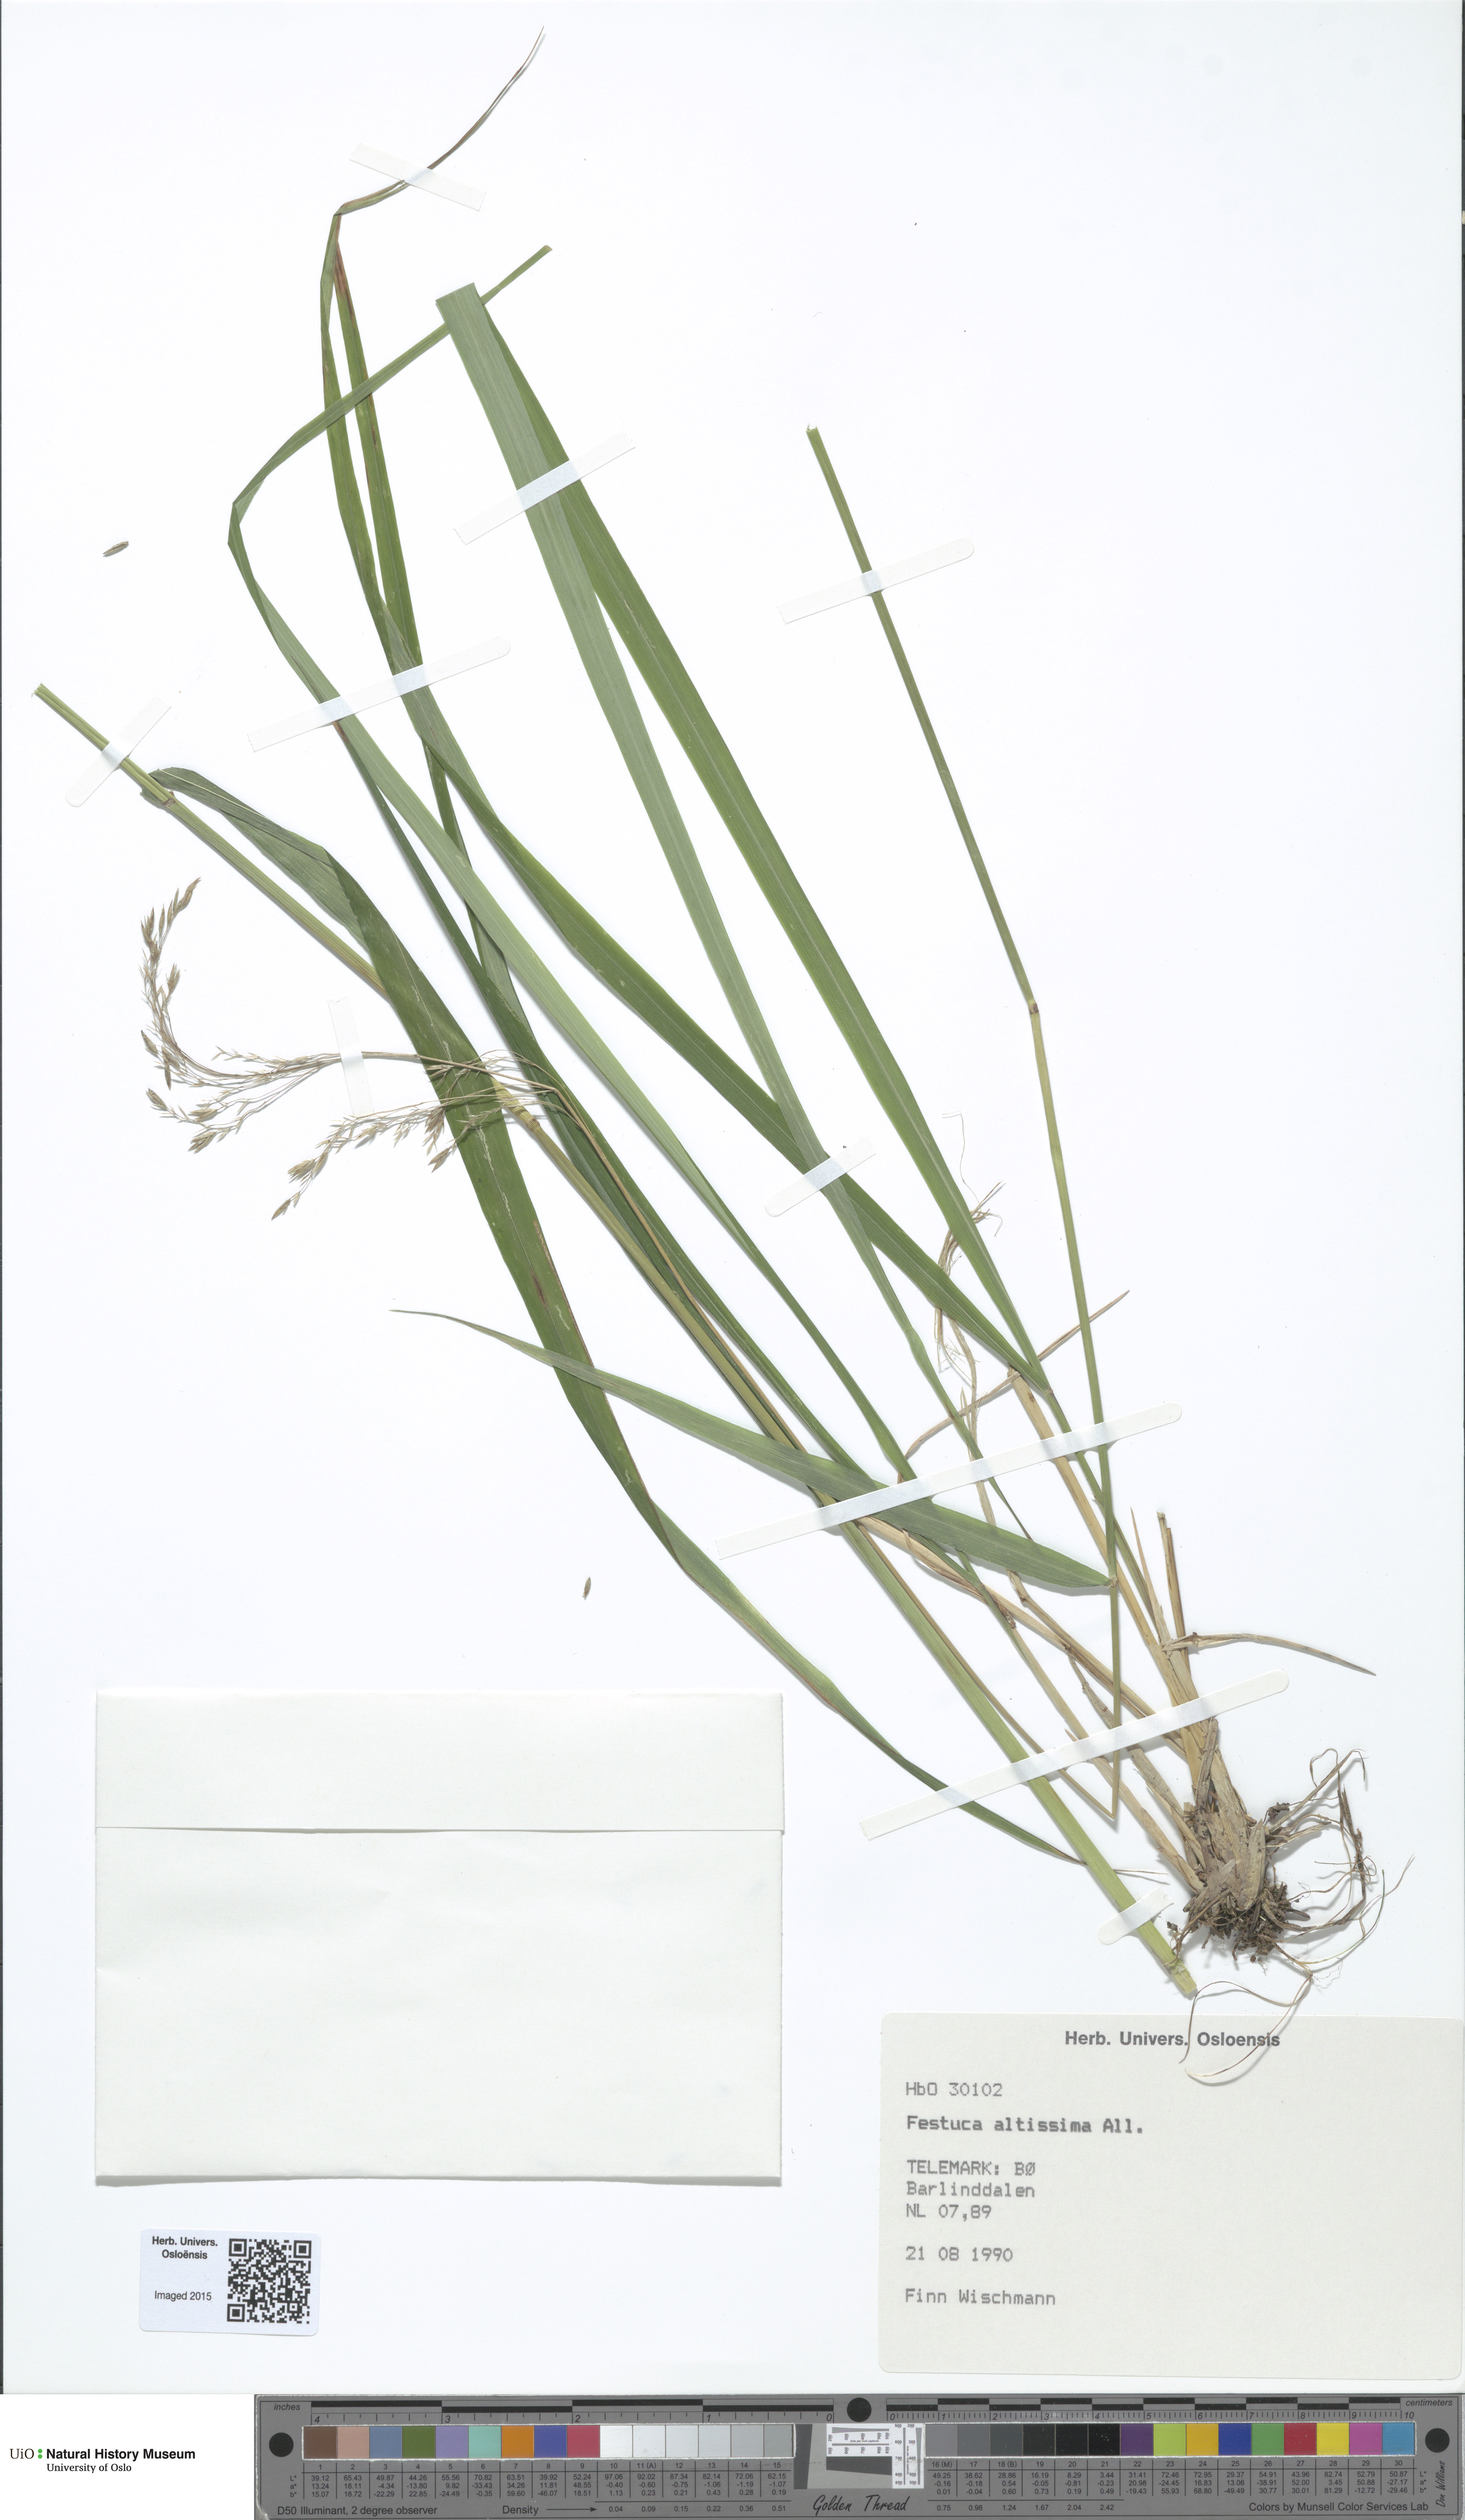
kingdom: Plantae
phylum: Tracheophyta
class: Liliopsida
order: Poales
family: Poaceae
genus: Festuca
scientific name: Festuca altissima
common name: Wood fescue
